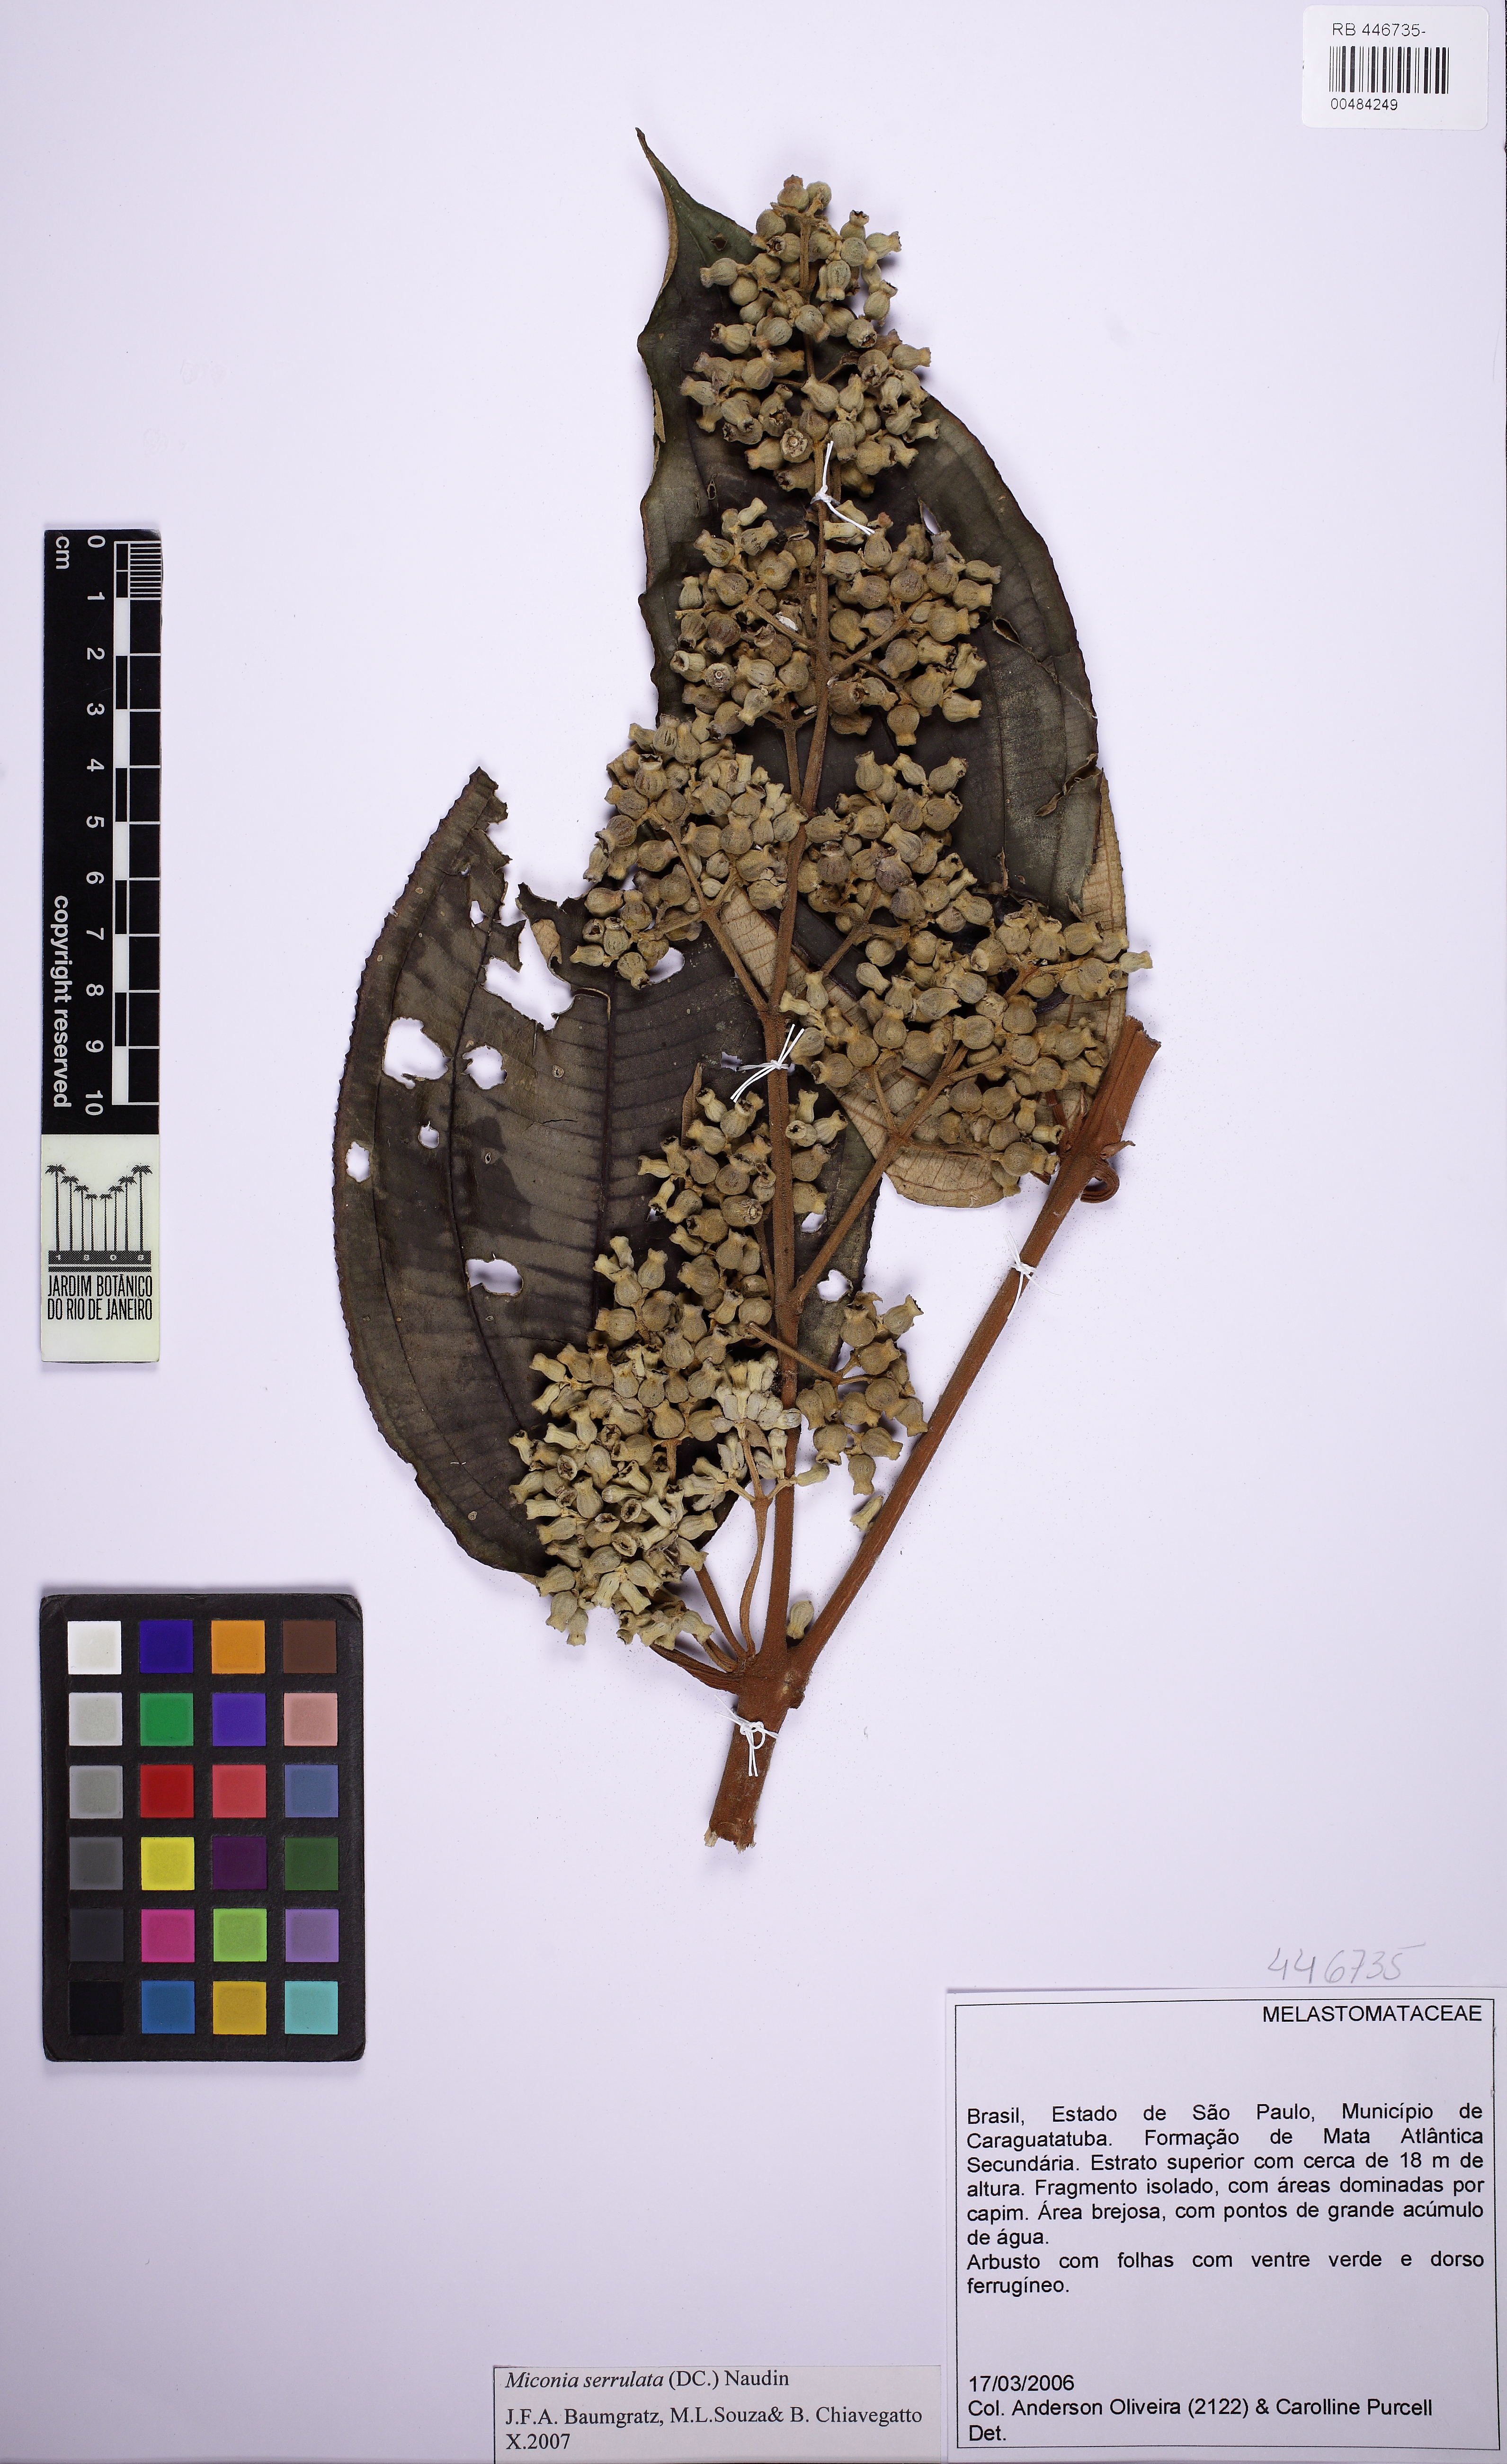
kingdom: Plantae
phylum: Tracheophyta
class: Magnoliopsida
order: Myrtales
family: Melastomataceae
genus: Miconia
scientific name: Miconia serrulata
